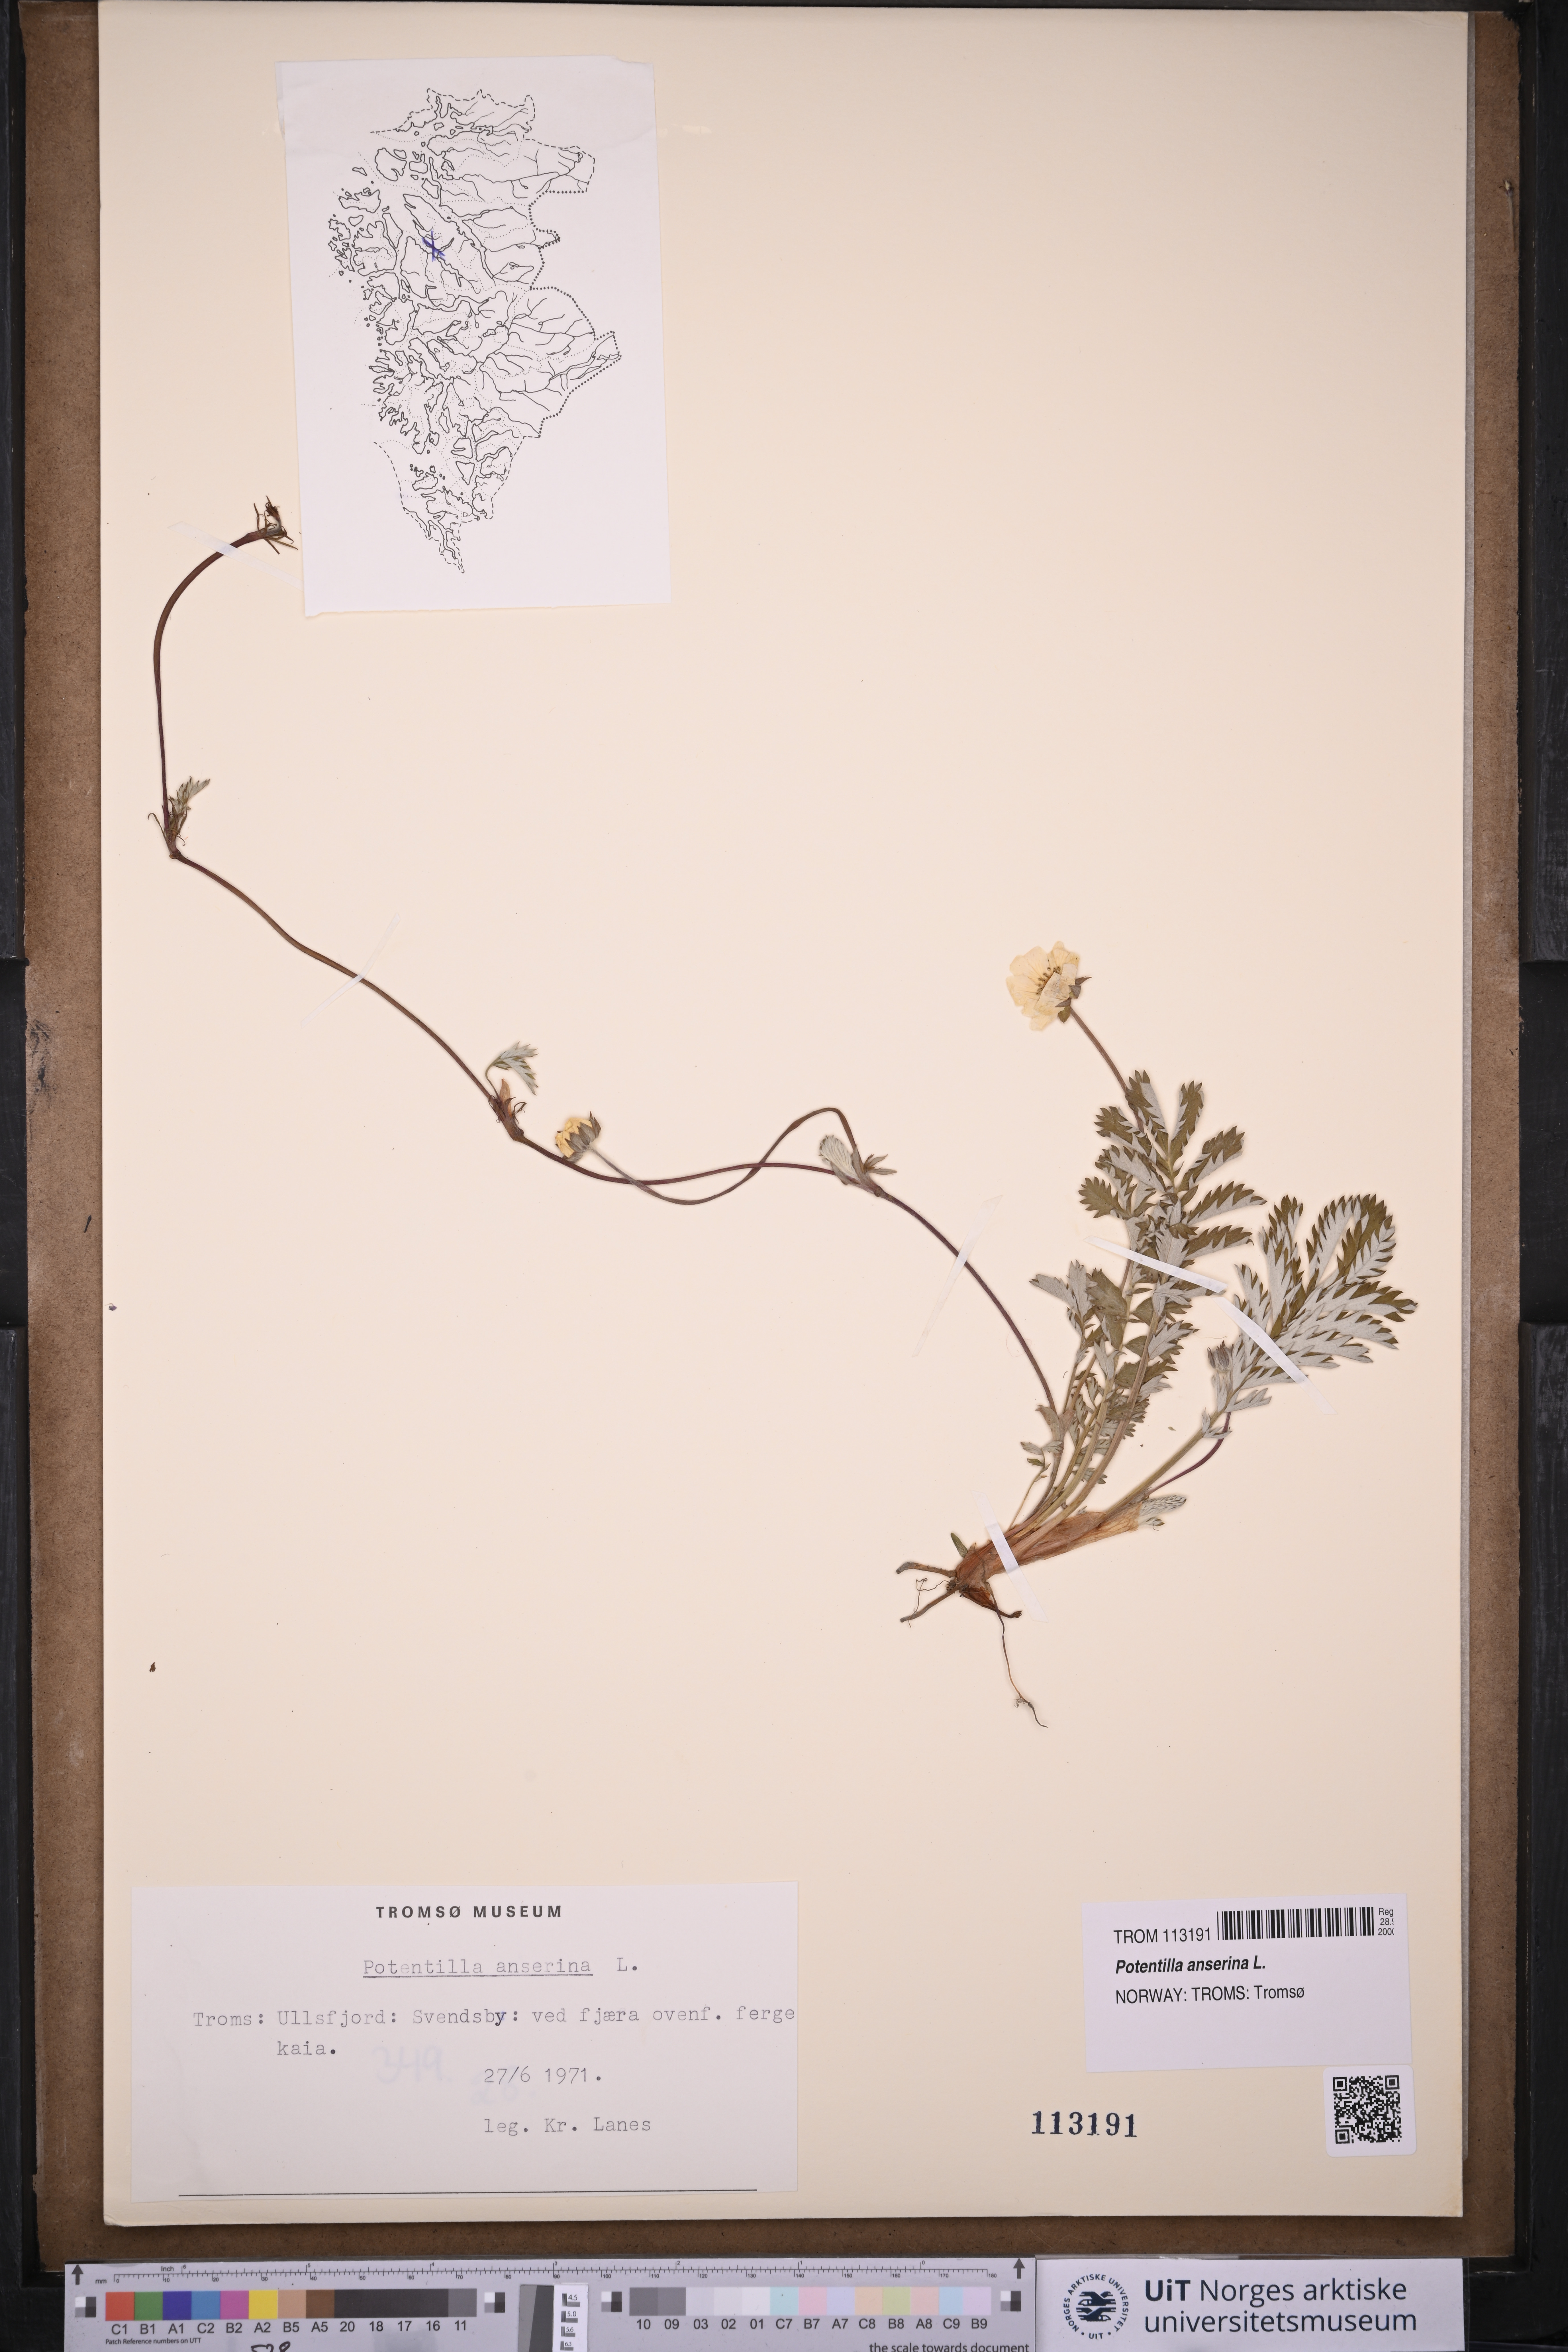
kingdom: Plantae
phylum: Tracheophyta
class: Magnoliopsida
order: Rosales
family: Rosaceae
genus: Argentina
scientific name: Argentina anserina
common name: Common silverweed
